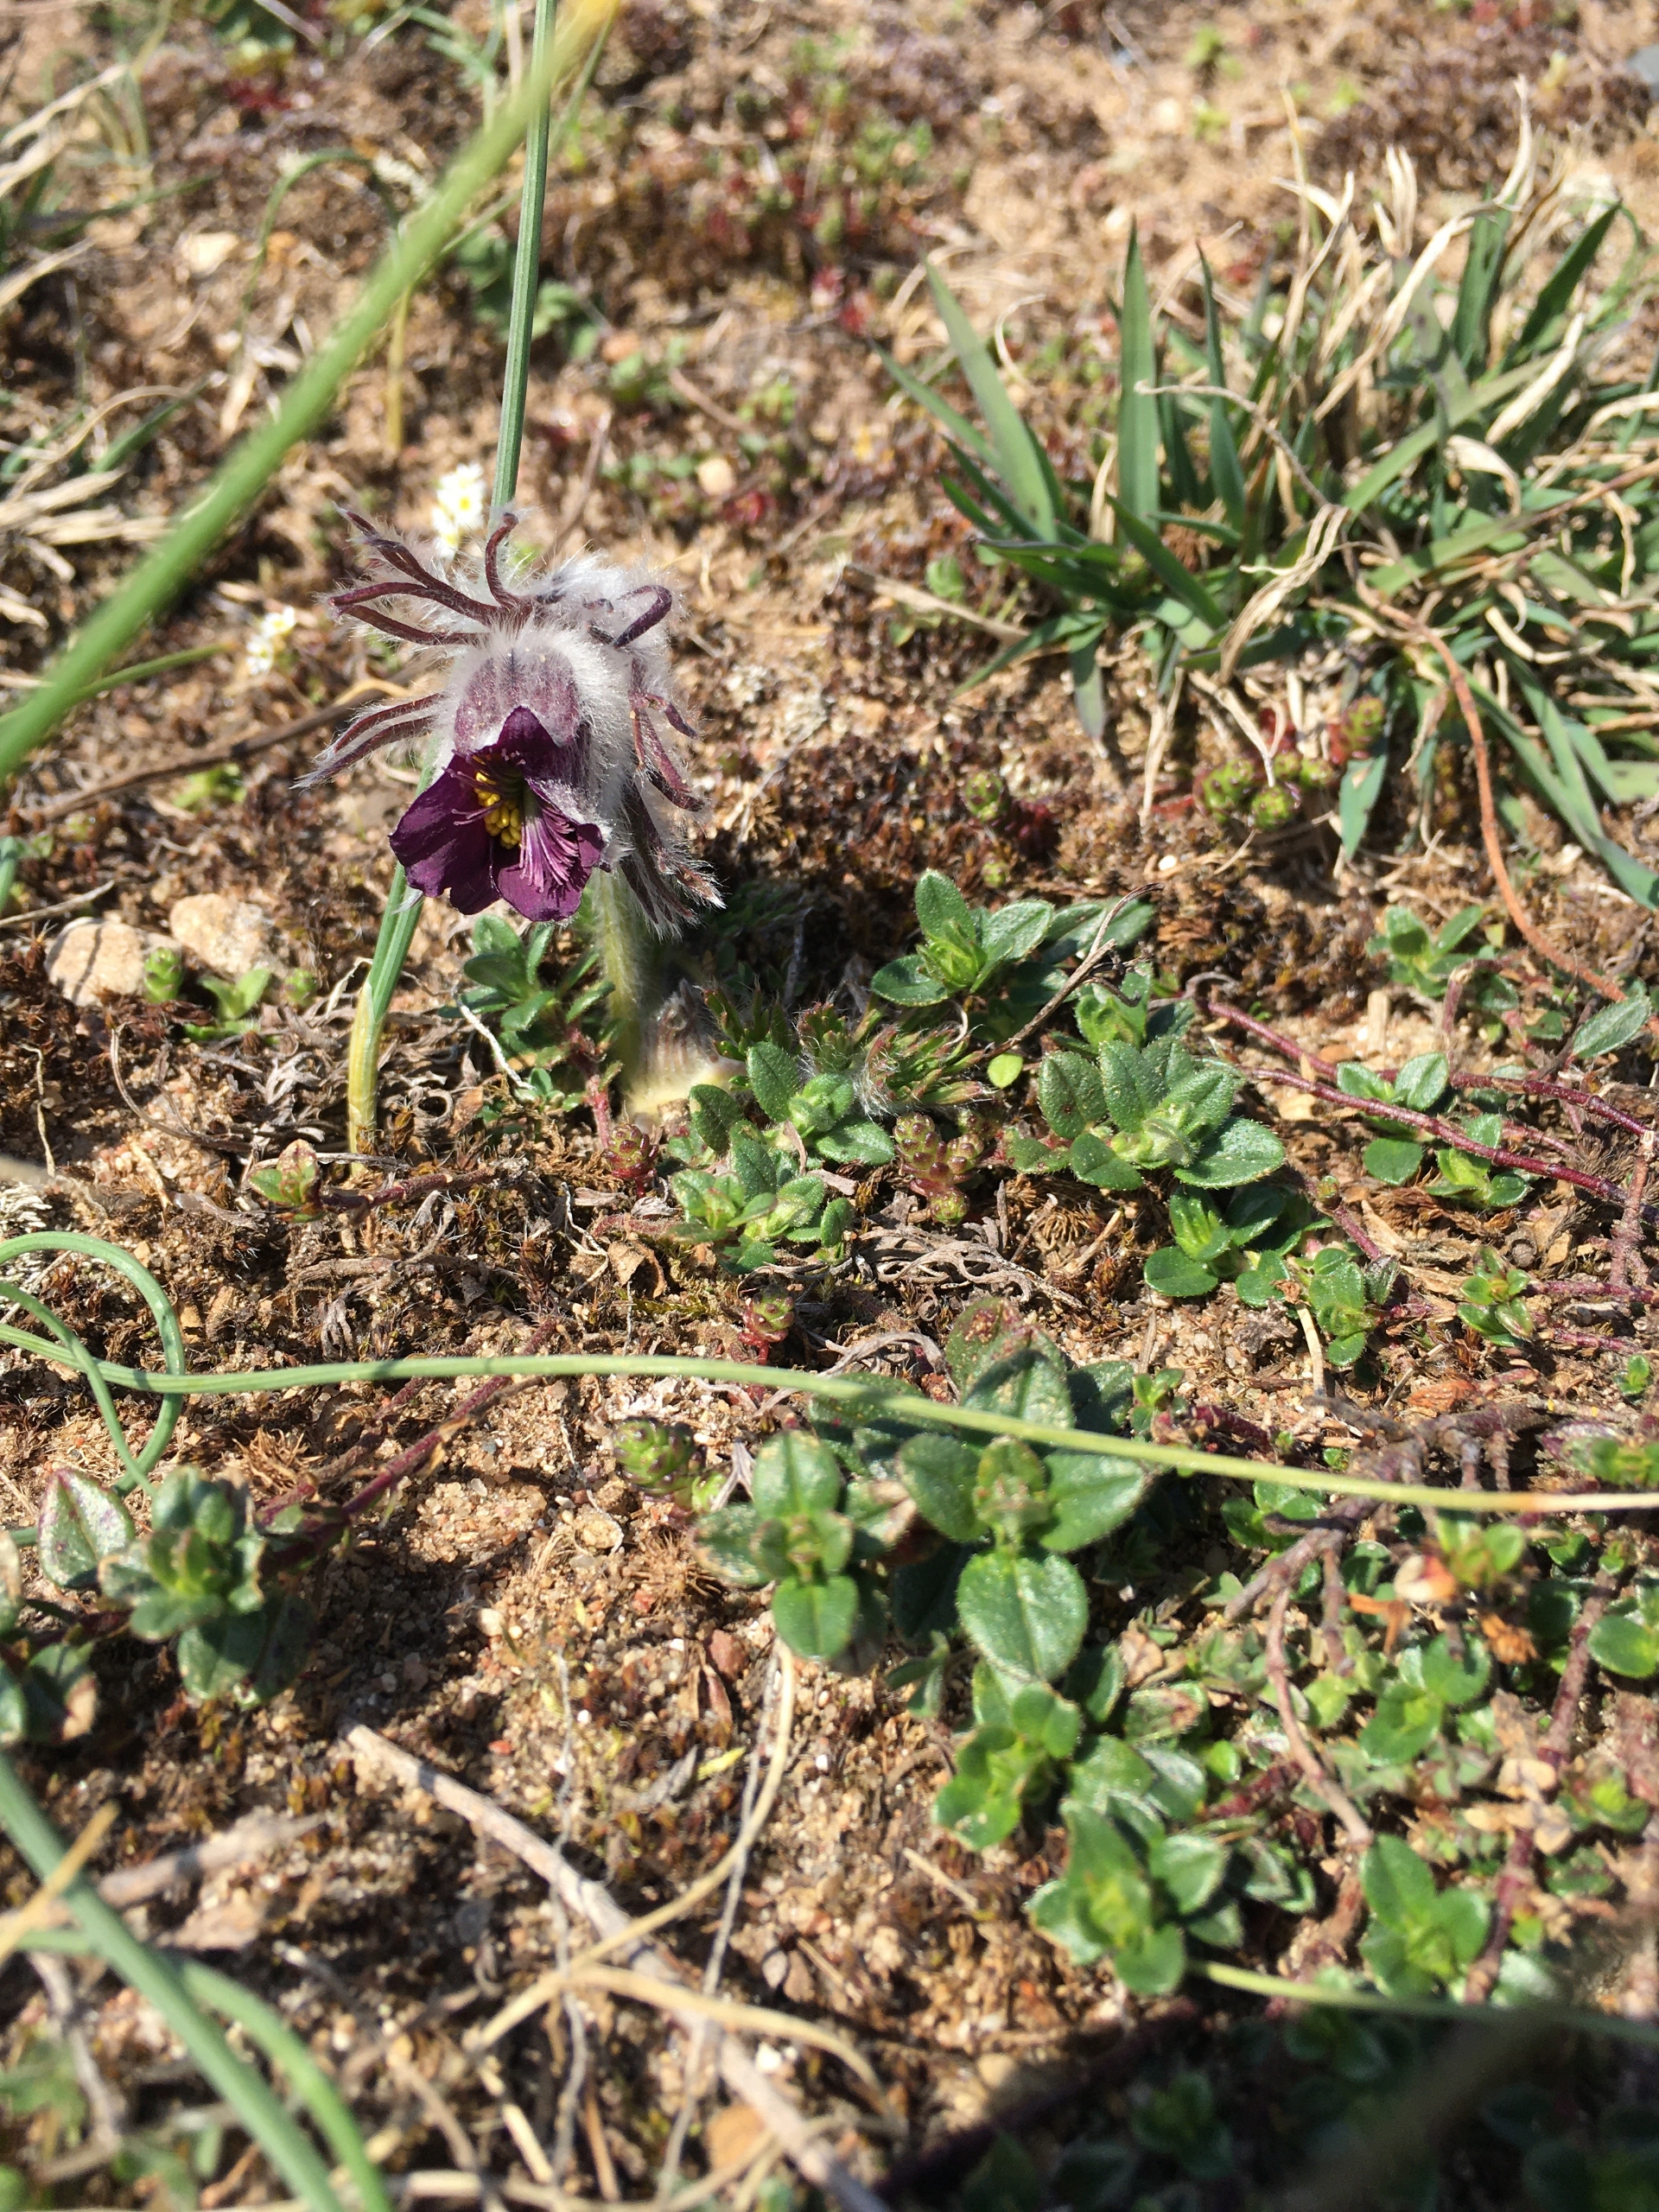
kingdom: Plantae
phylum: Tracheophyta
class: Magnoliopsida
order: Ranunculales
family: Ranunculaceae
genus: Pulsatilla
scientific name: Pulsatilla pratensis
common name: Nikkende kobjælde
